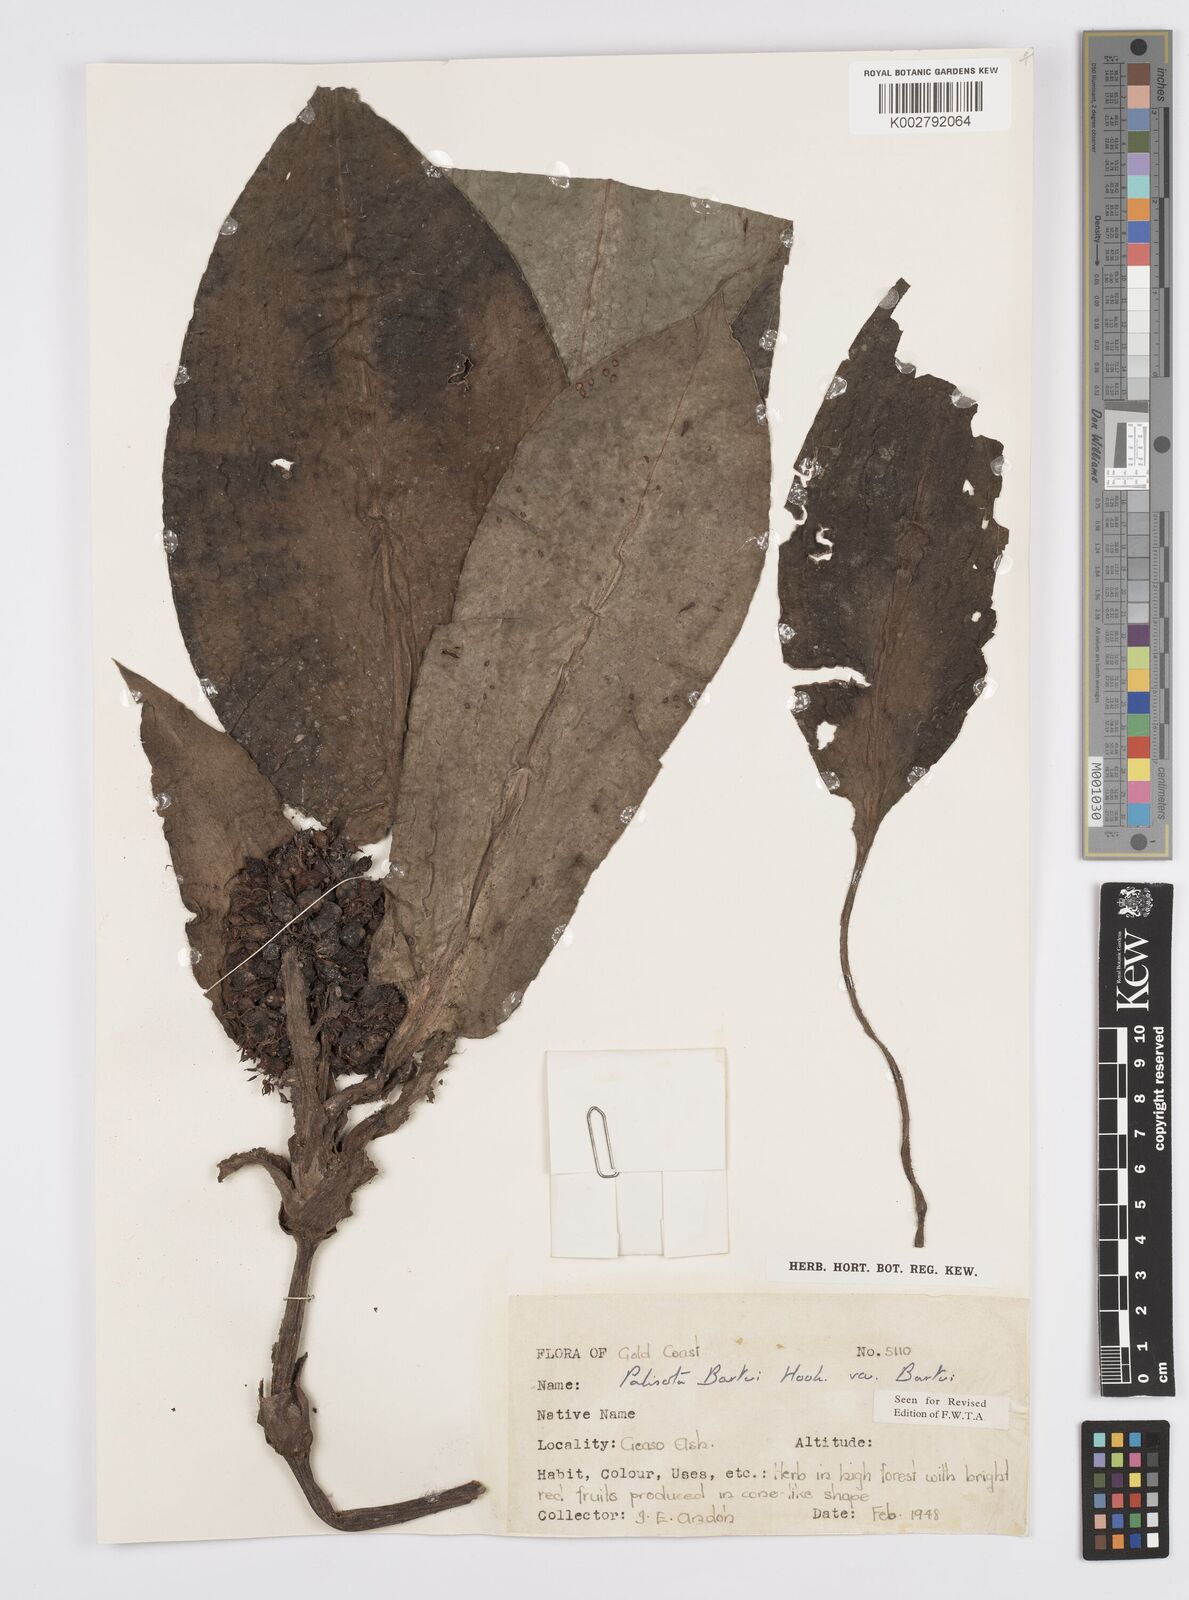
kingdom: Plantae
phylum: Tracheophyta
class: Liliopsida
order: Commelinales
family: Commelinaceae
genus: Palisota
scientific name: Palisota barteri
